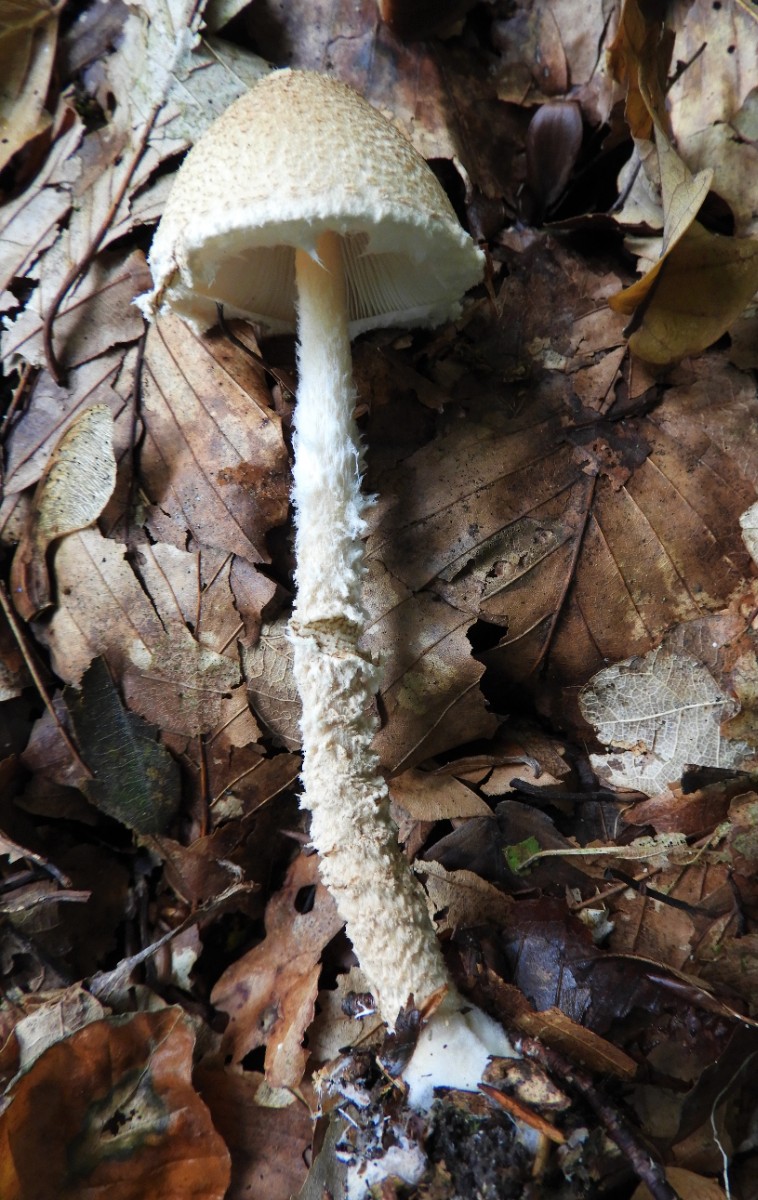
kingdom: Fungi
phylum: Basidiomycota
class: Agaricomycetes
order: Agaricales
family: Agaricaceae
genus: Lepiota
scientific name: Lepiota magnispora
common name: gulfnugget parasolhat
